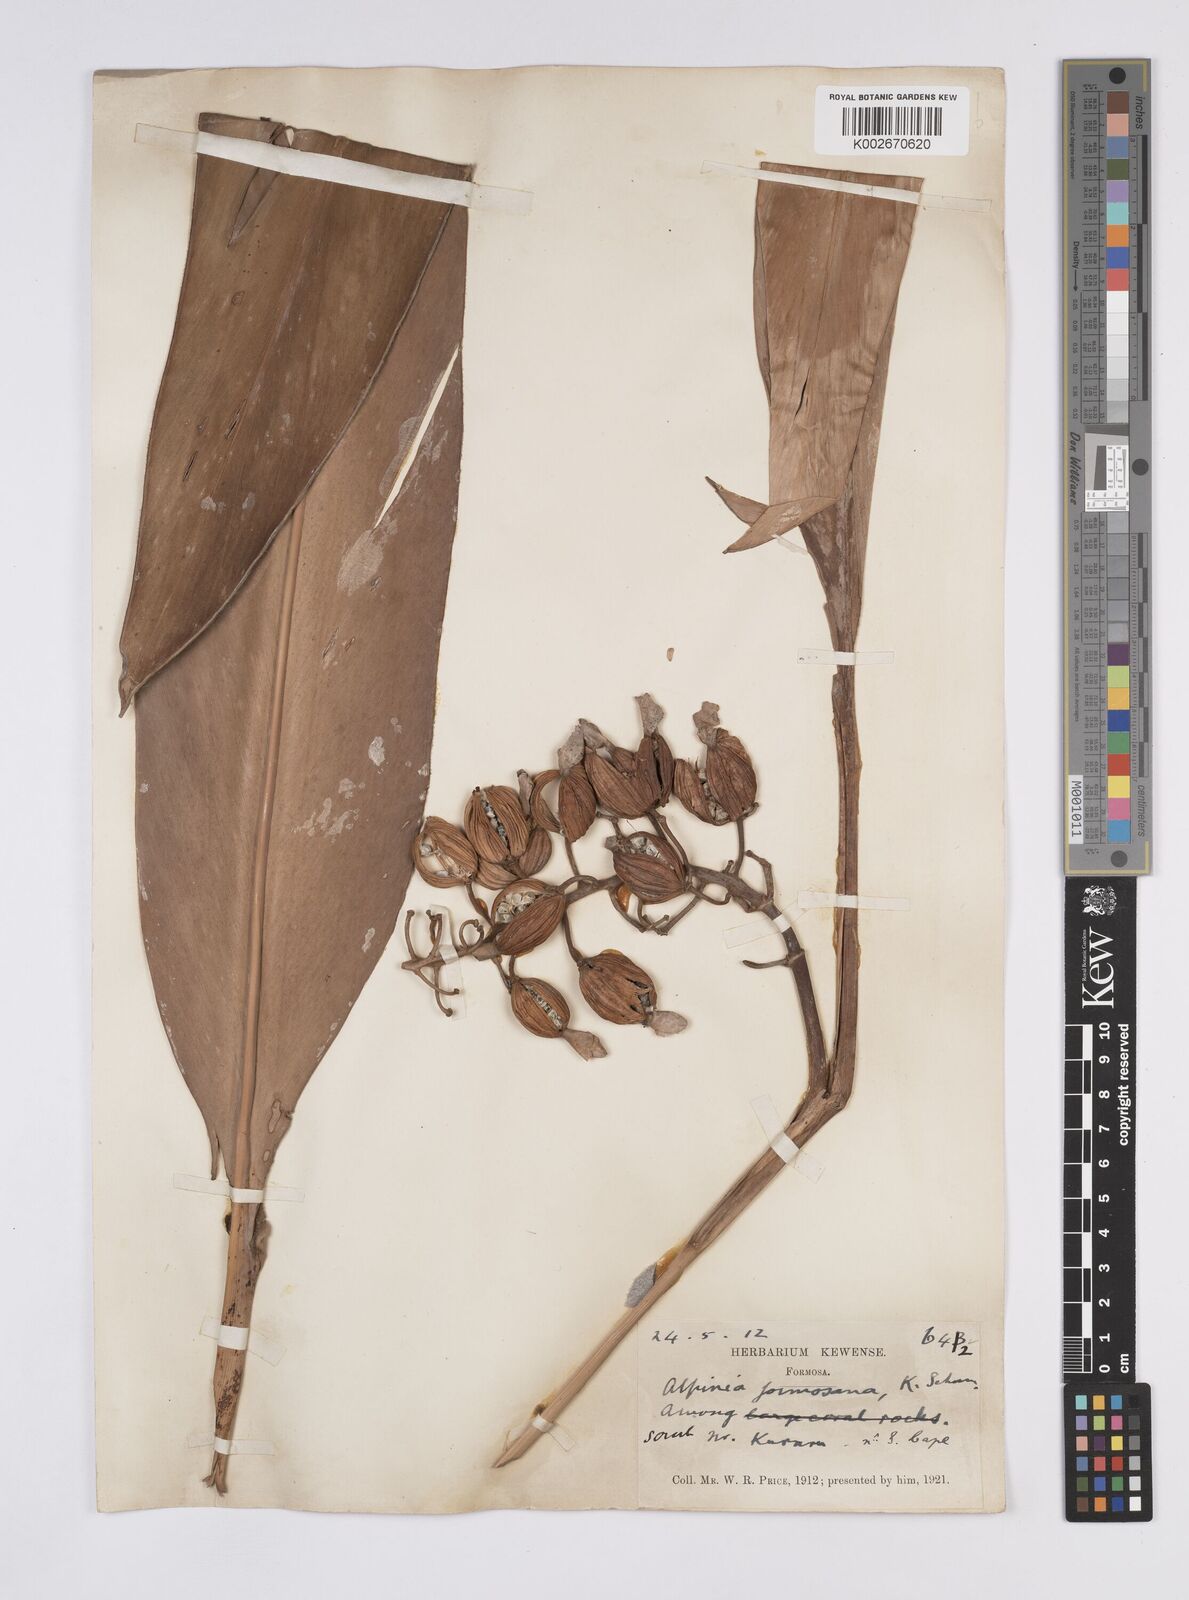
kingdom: Plantae
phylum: Tracheophyta
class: Liliopsida
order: Zingiberales
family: Zingiberaceae
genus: Alpinia
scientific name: Alpinia formosana
